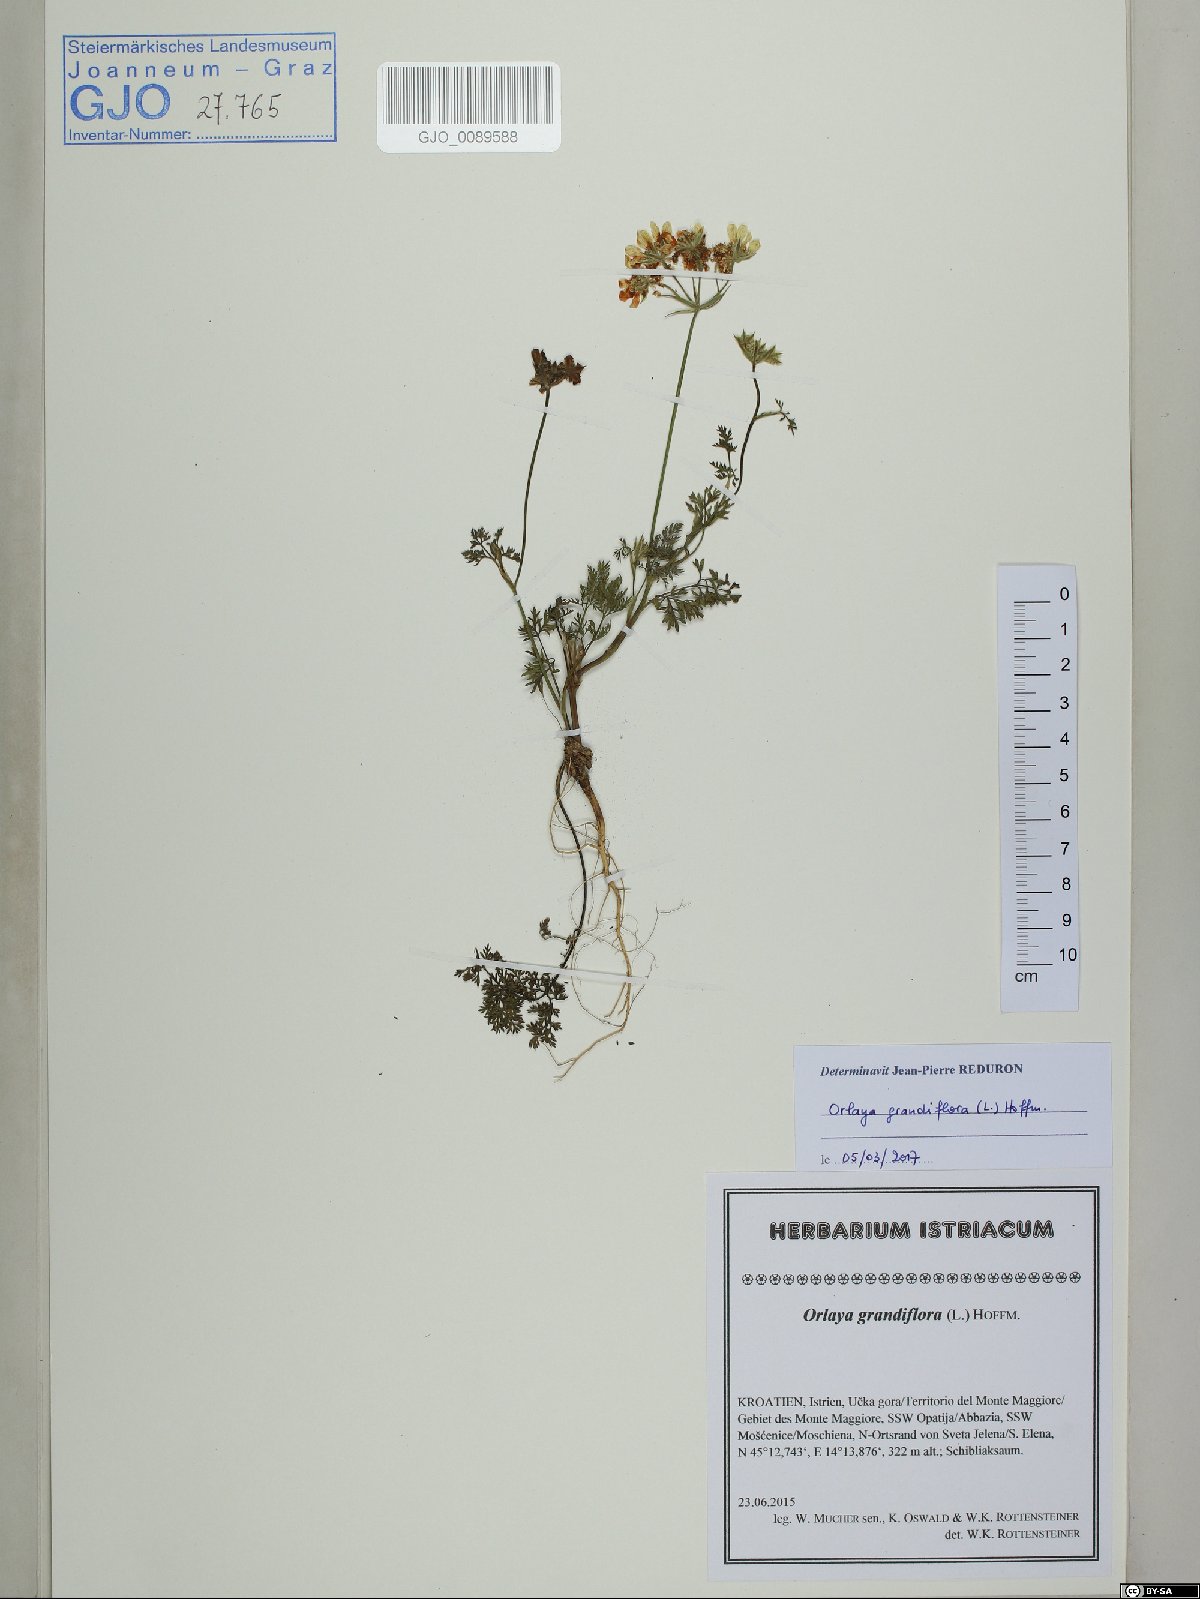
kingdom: Plantae
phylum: Tracheophyta
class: Magnoliopsida
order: Apiales
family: Apiaceae
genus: Orlaya
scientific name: Orlaya grandiflora
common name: White lace flower
